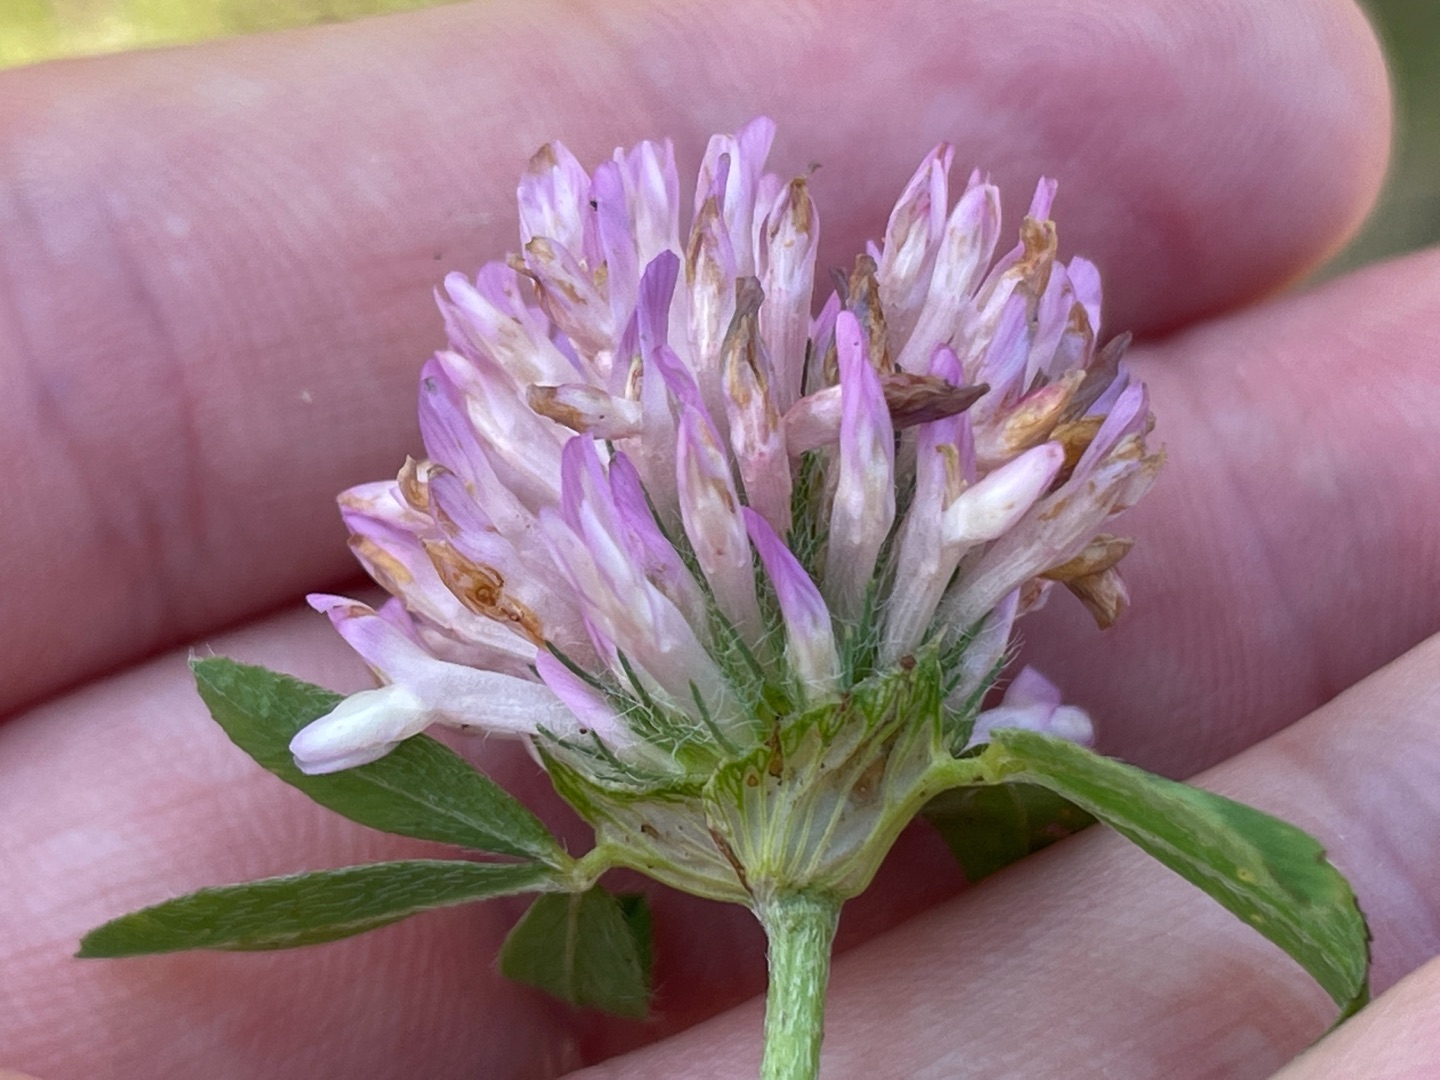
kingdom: Plantae
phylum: Tracheophyta
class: Magnoliopsida
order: Fabales
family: Fabaceae
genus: Trifolium
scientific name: Trifolium pratense
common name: Rød-kløver
